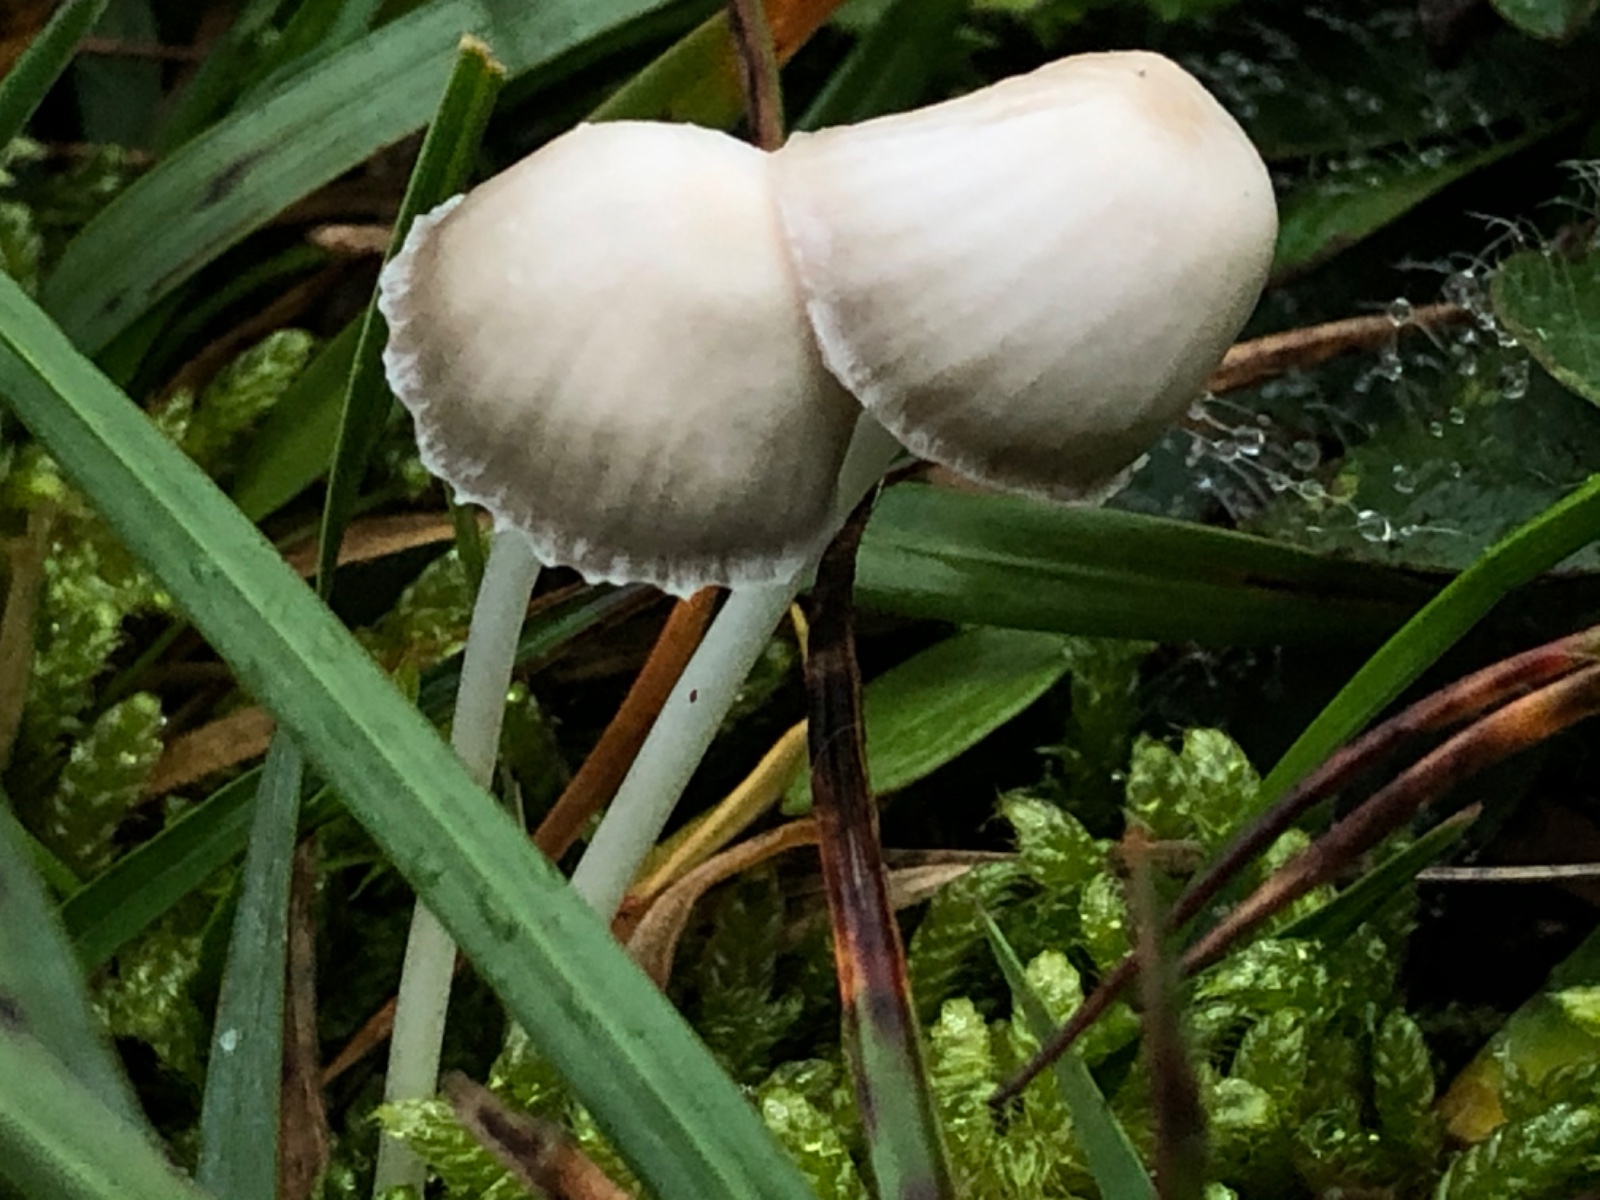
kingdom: Fungi
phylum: Basidiomycota
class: Agaricomycetes
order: Agaricales
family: Mycenaceae
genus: Mycena
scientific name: Mycena epipterygia
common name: Yellowleg bonnet
